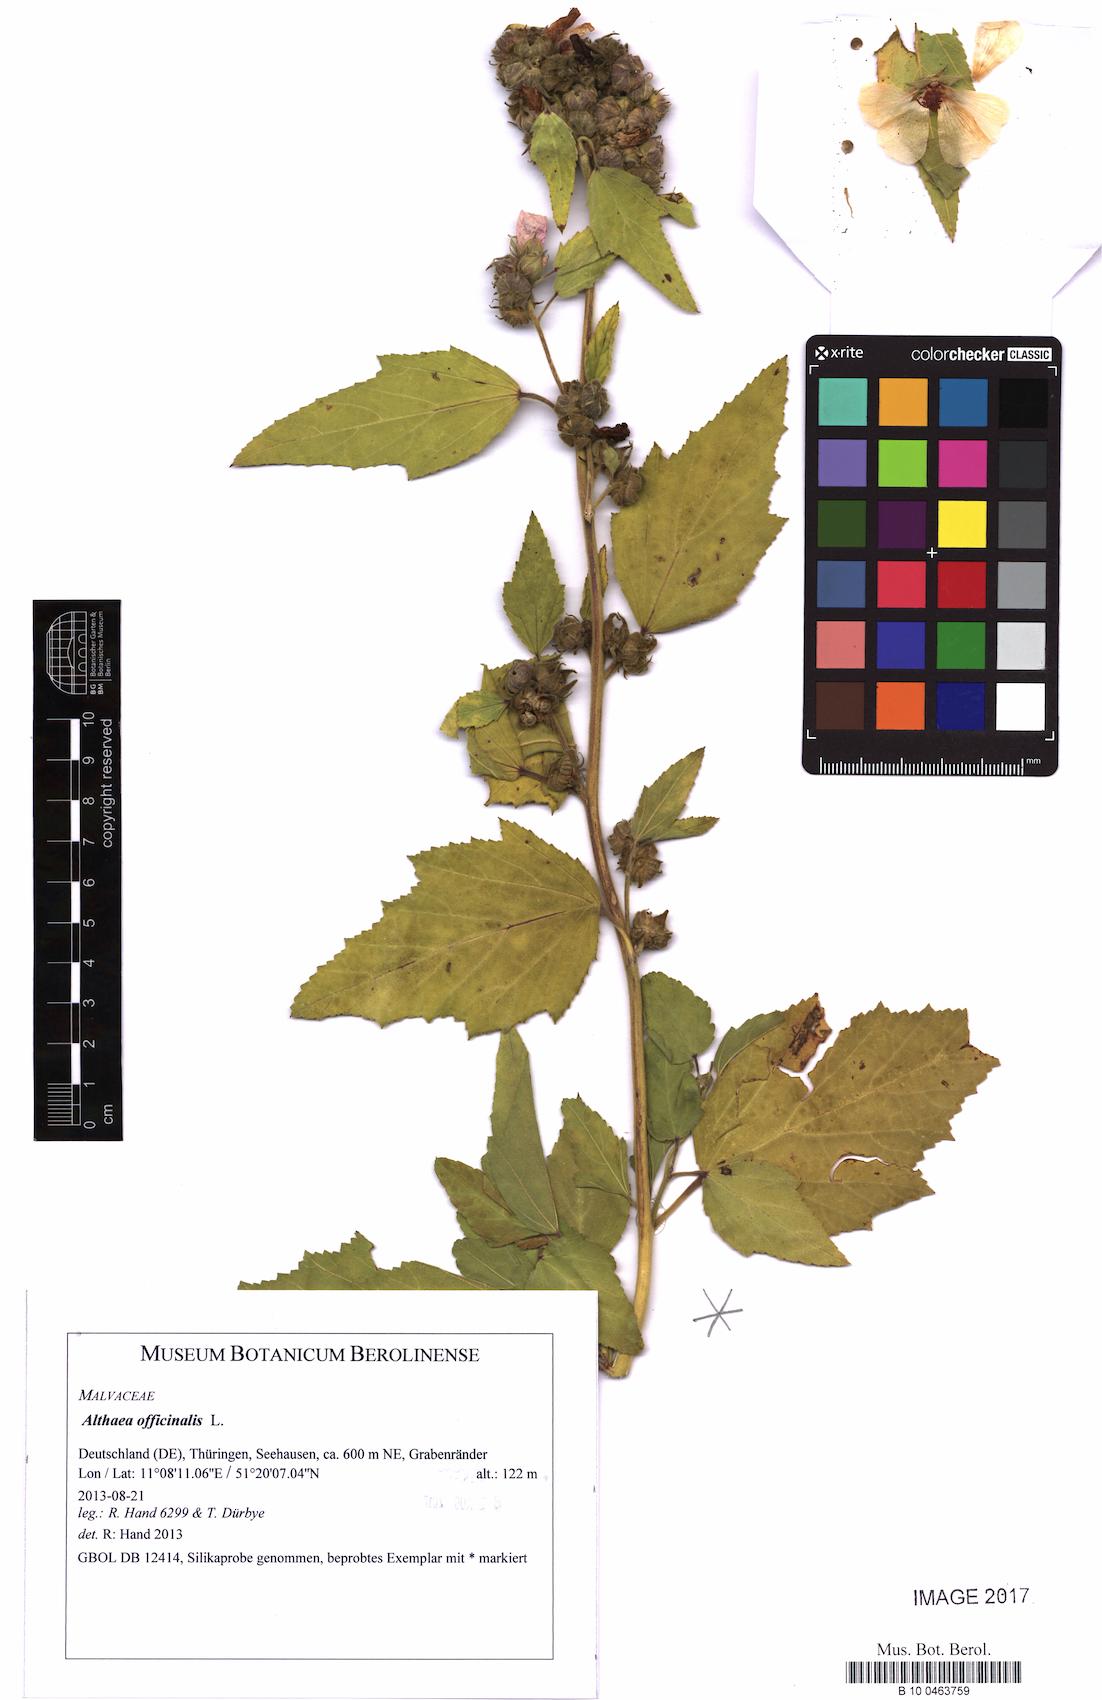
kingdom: Plantae
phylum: Tracheophyta
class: Magnoliopsida
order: Malvales
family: Malvaceae
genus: Althaea
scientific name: Althaea officinalis
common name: Marsh-mallow
